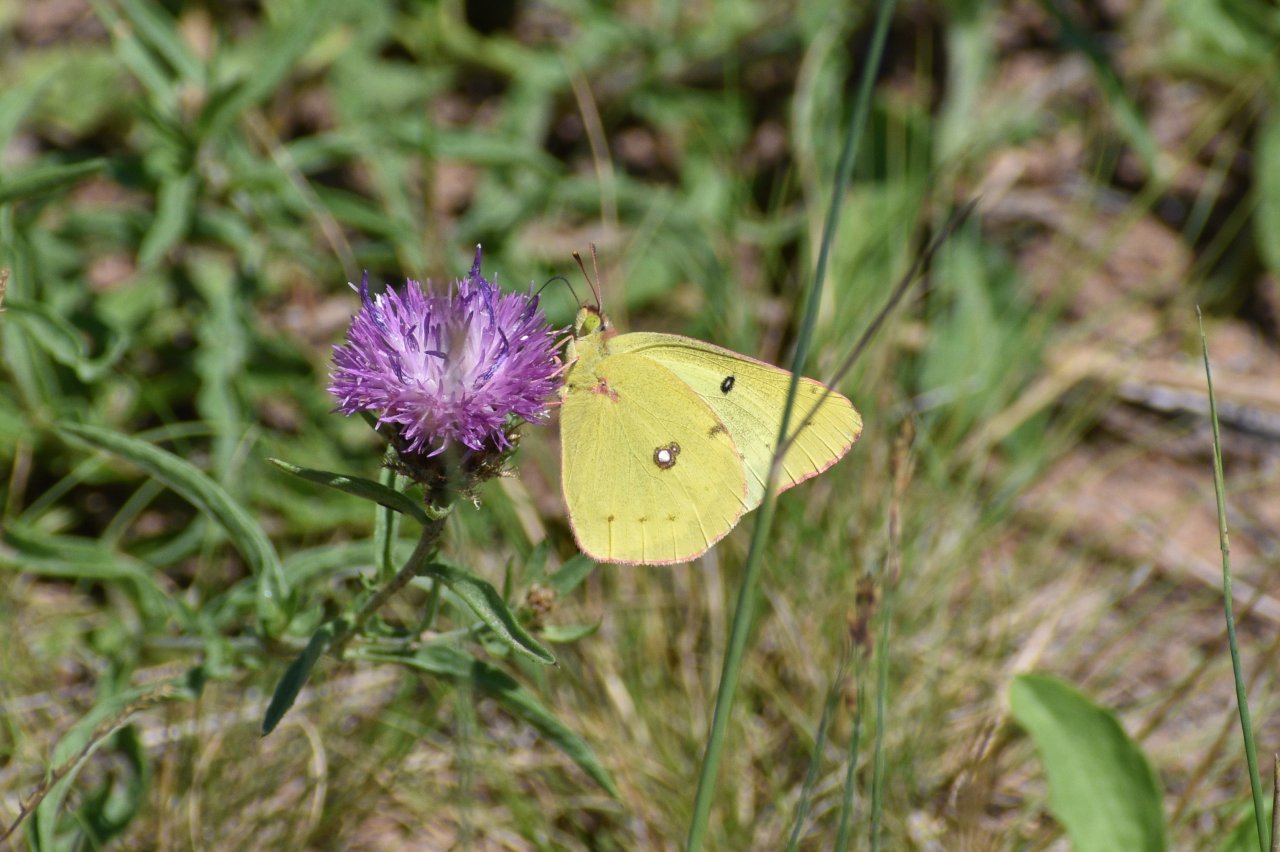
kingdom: Animalia
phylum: Arthropoda
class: Insecta
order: Lepidoptera
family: Pieridae
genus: Colias
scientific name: Colias philodice
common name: Clouded Sulphur
